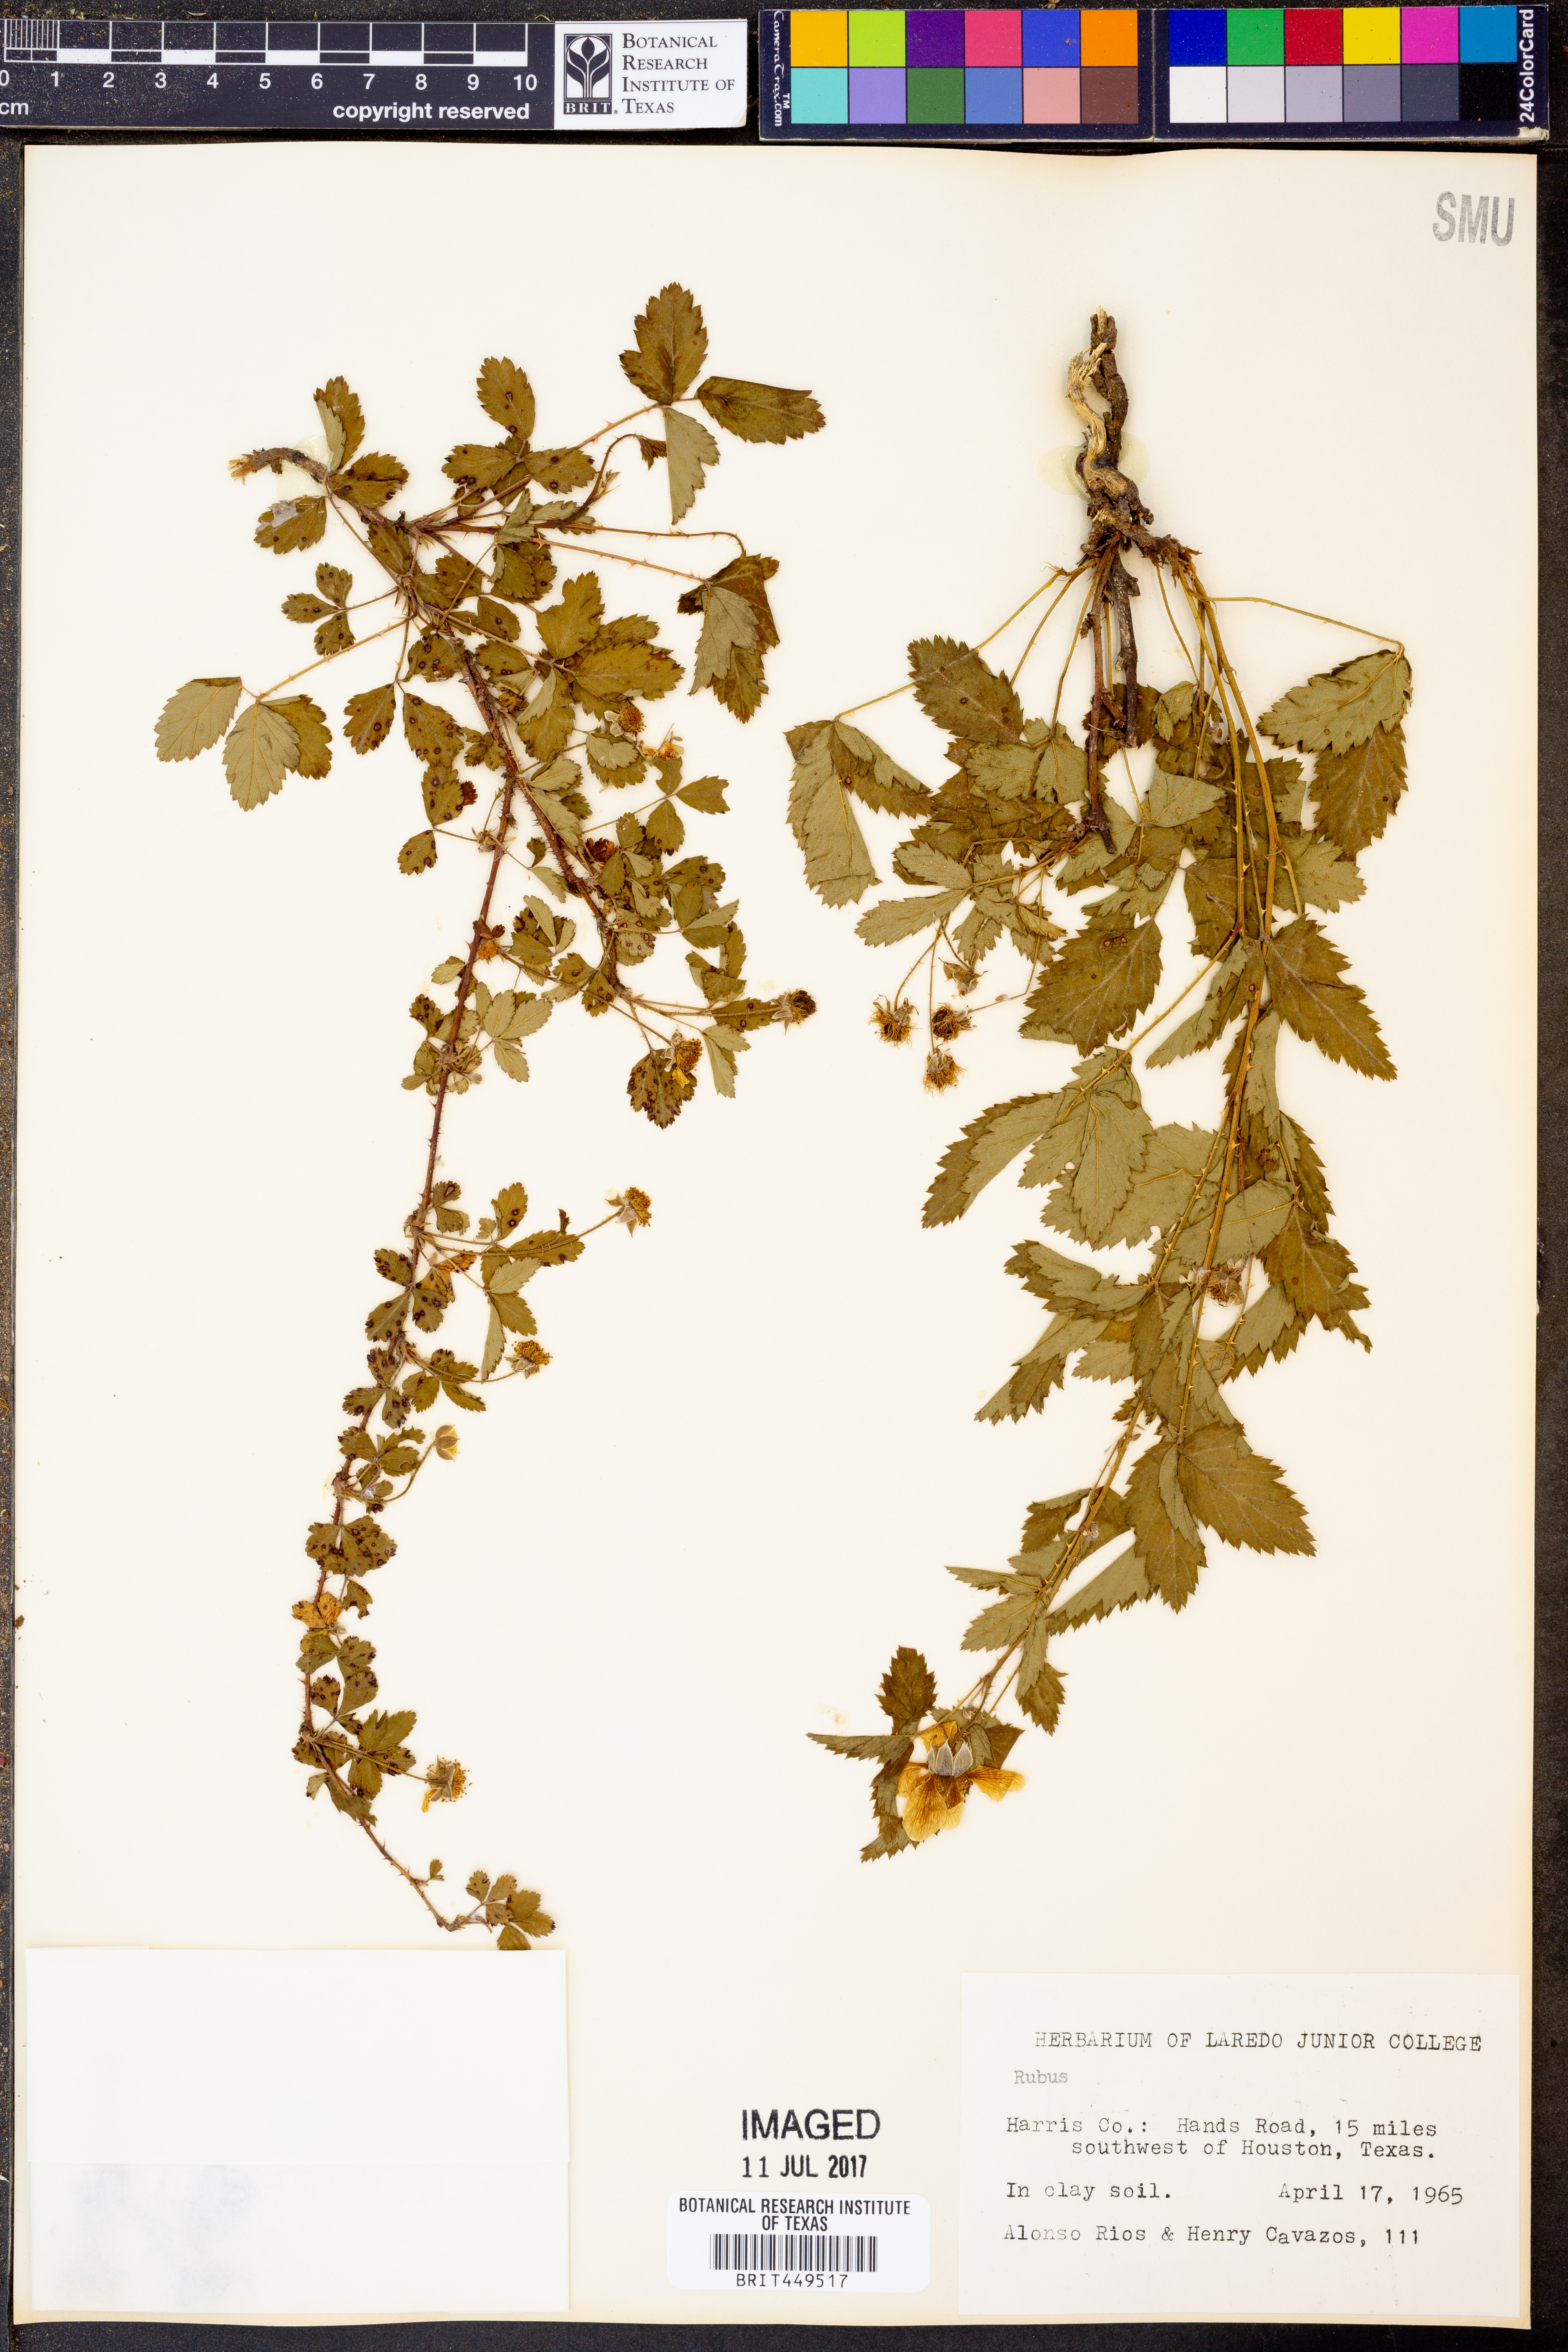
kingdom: Plantae
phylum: Tracheophyta
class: Magnoliopsida
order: Rosales
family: Rosaceae
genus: Rubus
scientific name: Rubus
